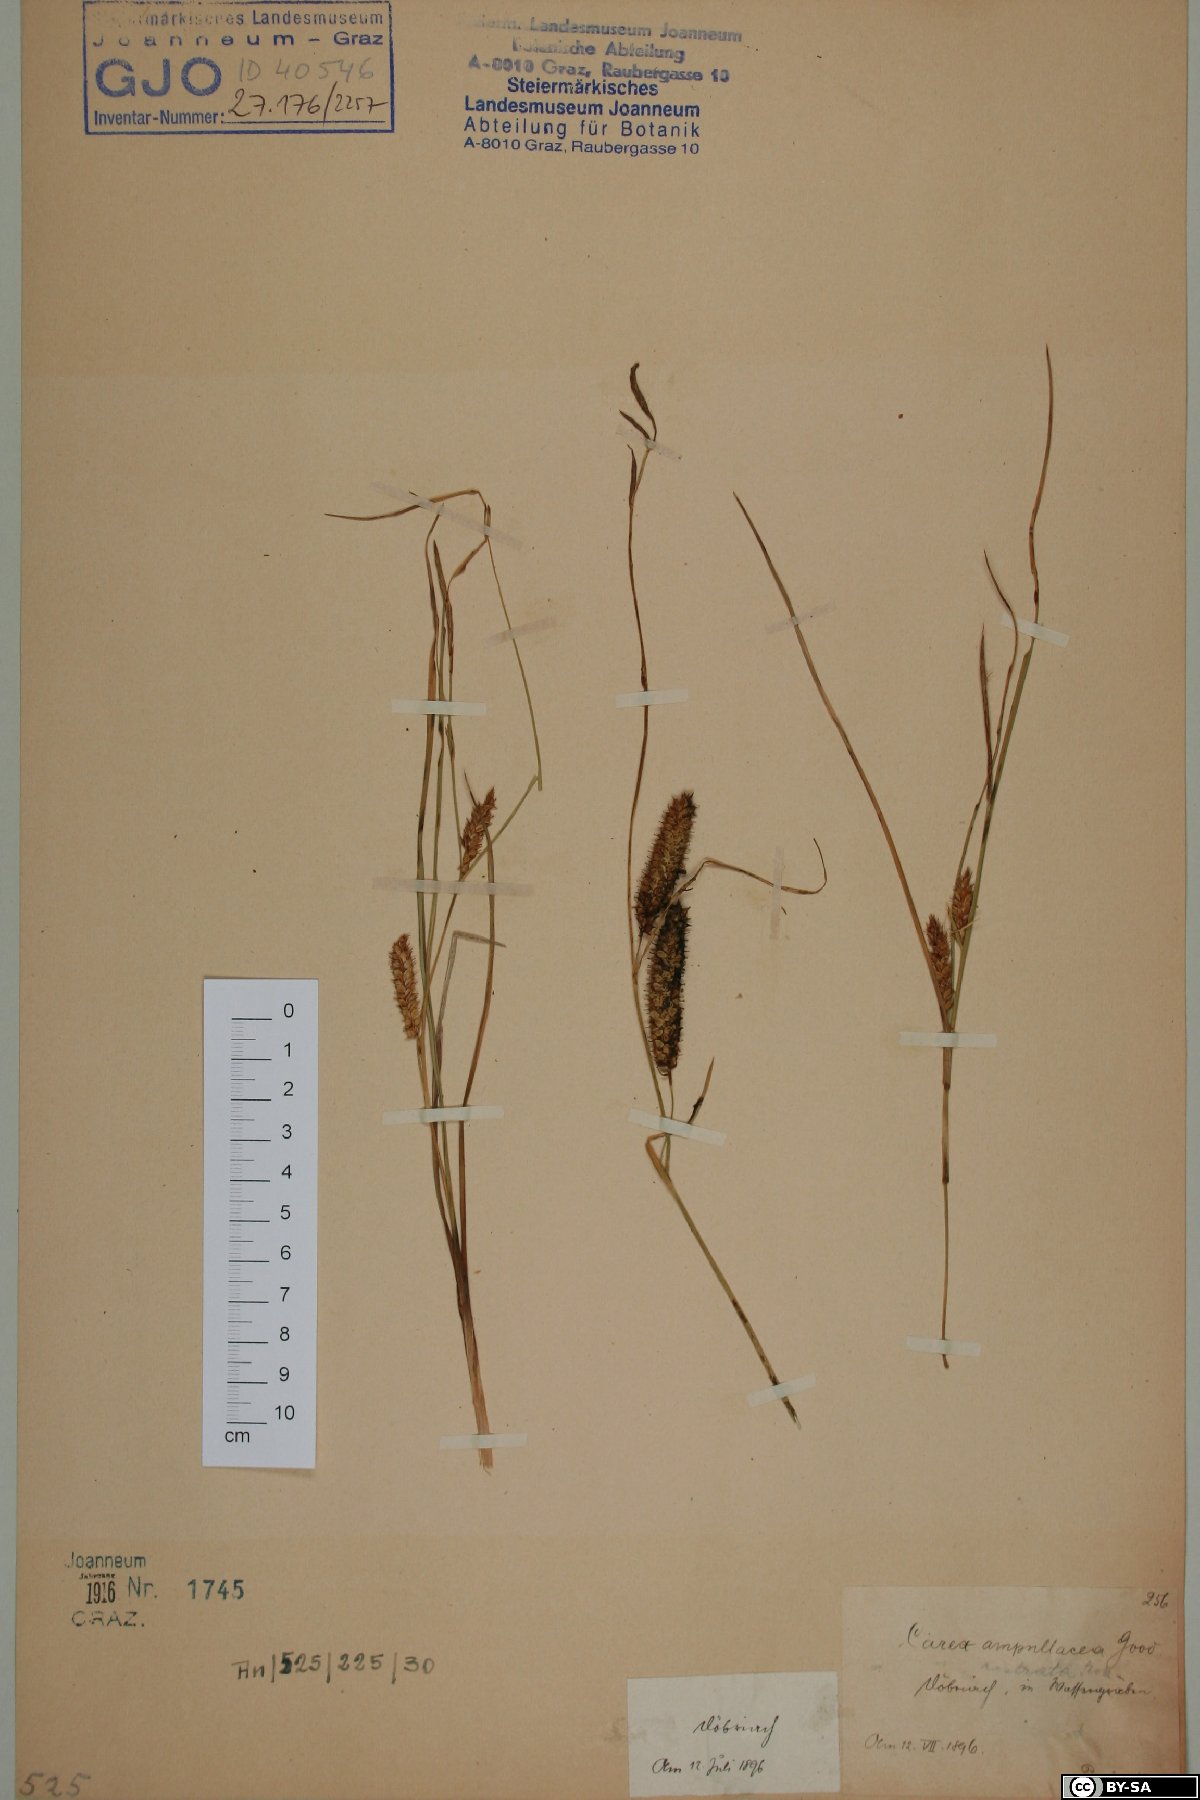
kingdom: Plantae
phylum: Tracheophyta
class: Liliopsida
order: Poales
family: Cyperaceae
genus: Carex
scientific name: Carex rostrata
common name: Bottle sedge
